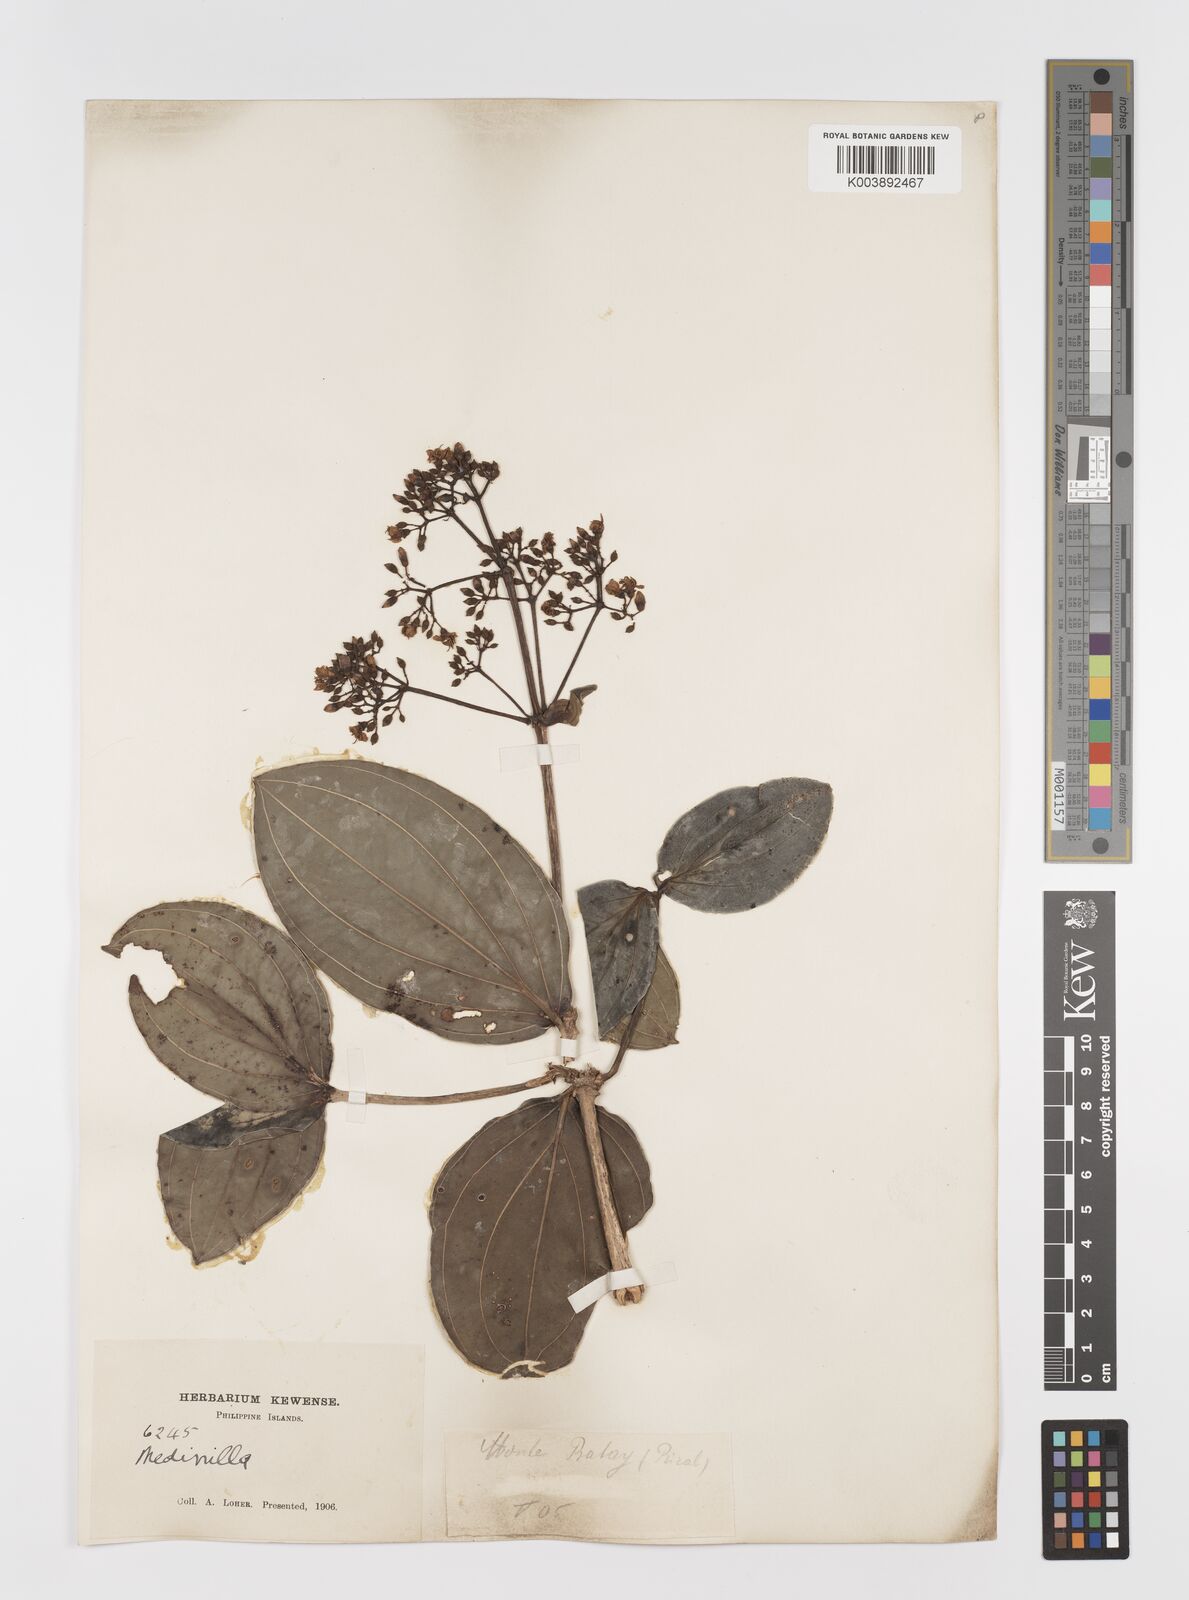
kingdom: Plantae
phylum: Tracheophyta
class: Magnoliopsida
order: Myrtales
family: Melastomataceae
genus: Medinilla
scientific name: Medinilla binaria
